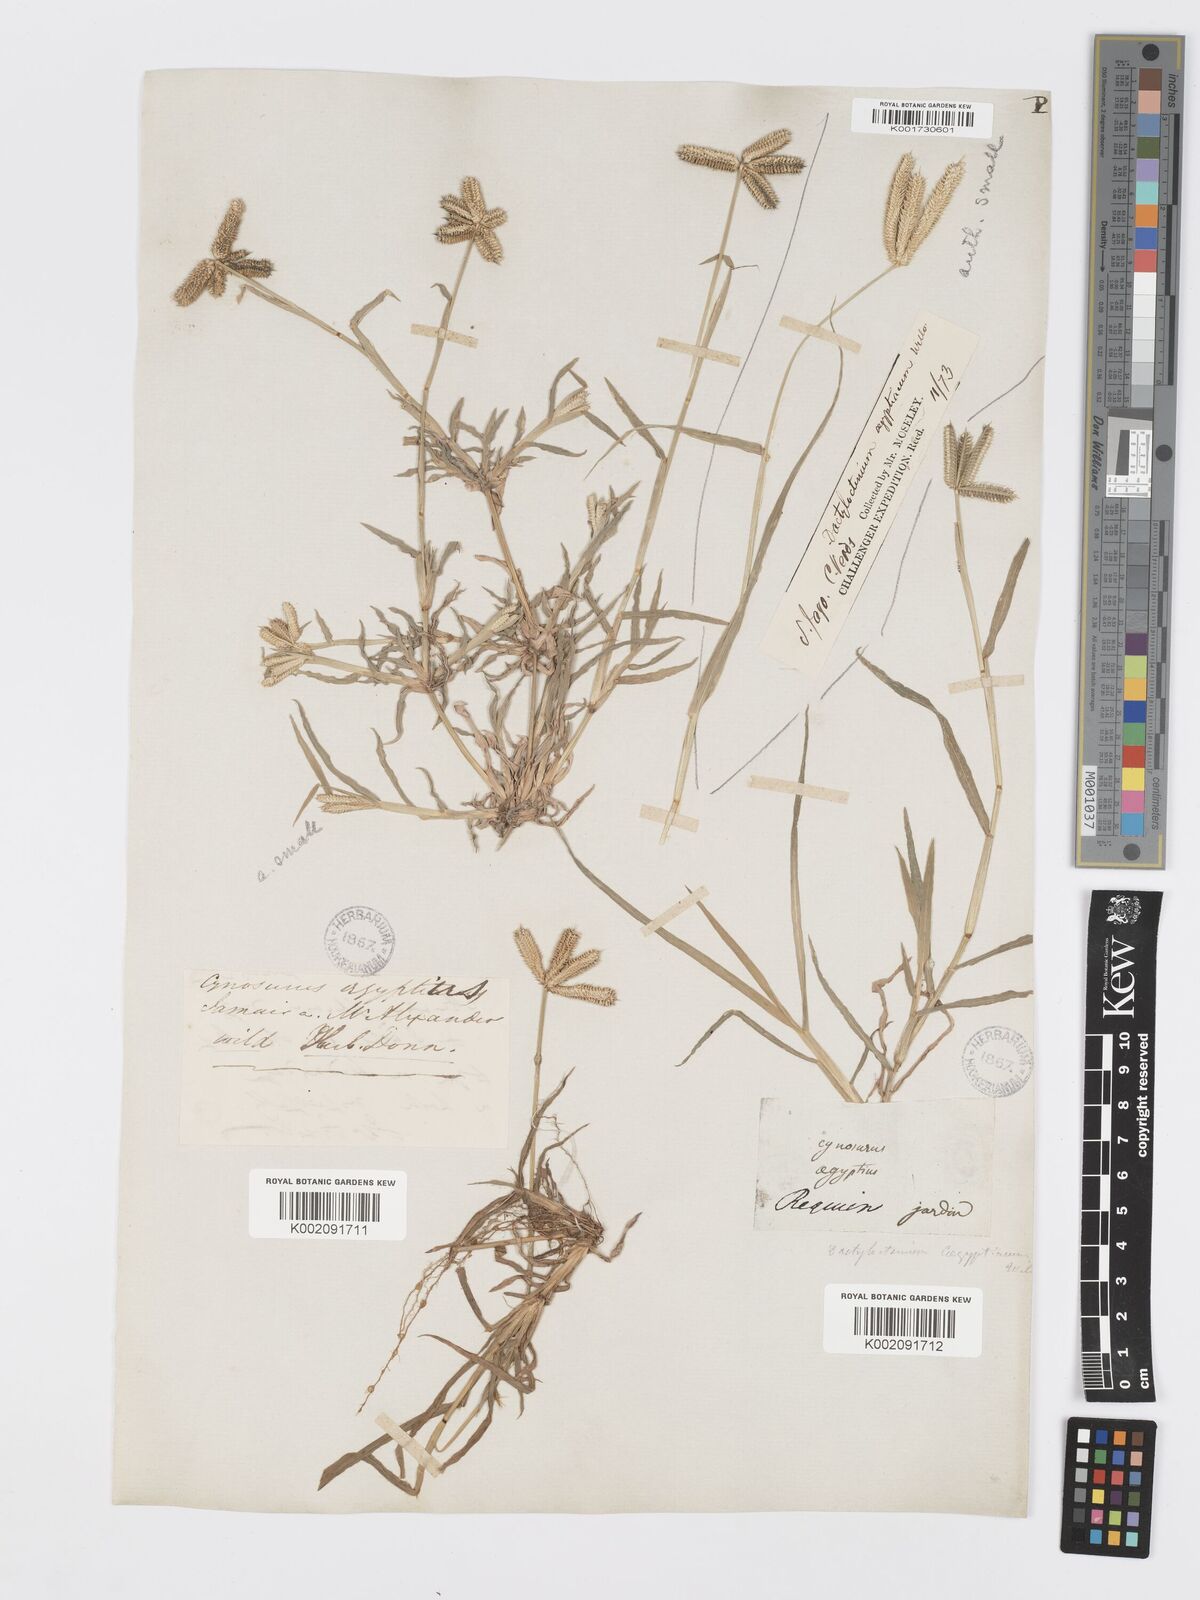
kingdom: Plantae
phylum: Tracheophyta
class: Liliopsida
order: Poales
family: Poaceae
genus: Dactyloctenium
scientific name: Dactyloctenium aegyptium
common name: Egyptian grass
